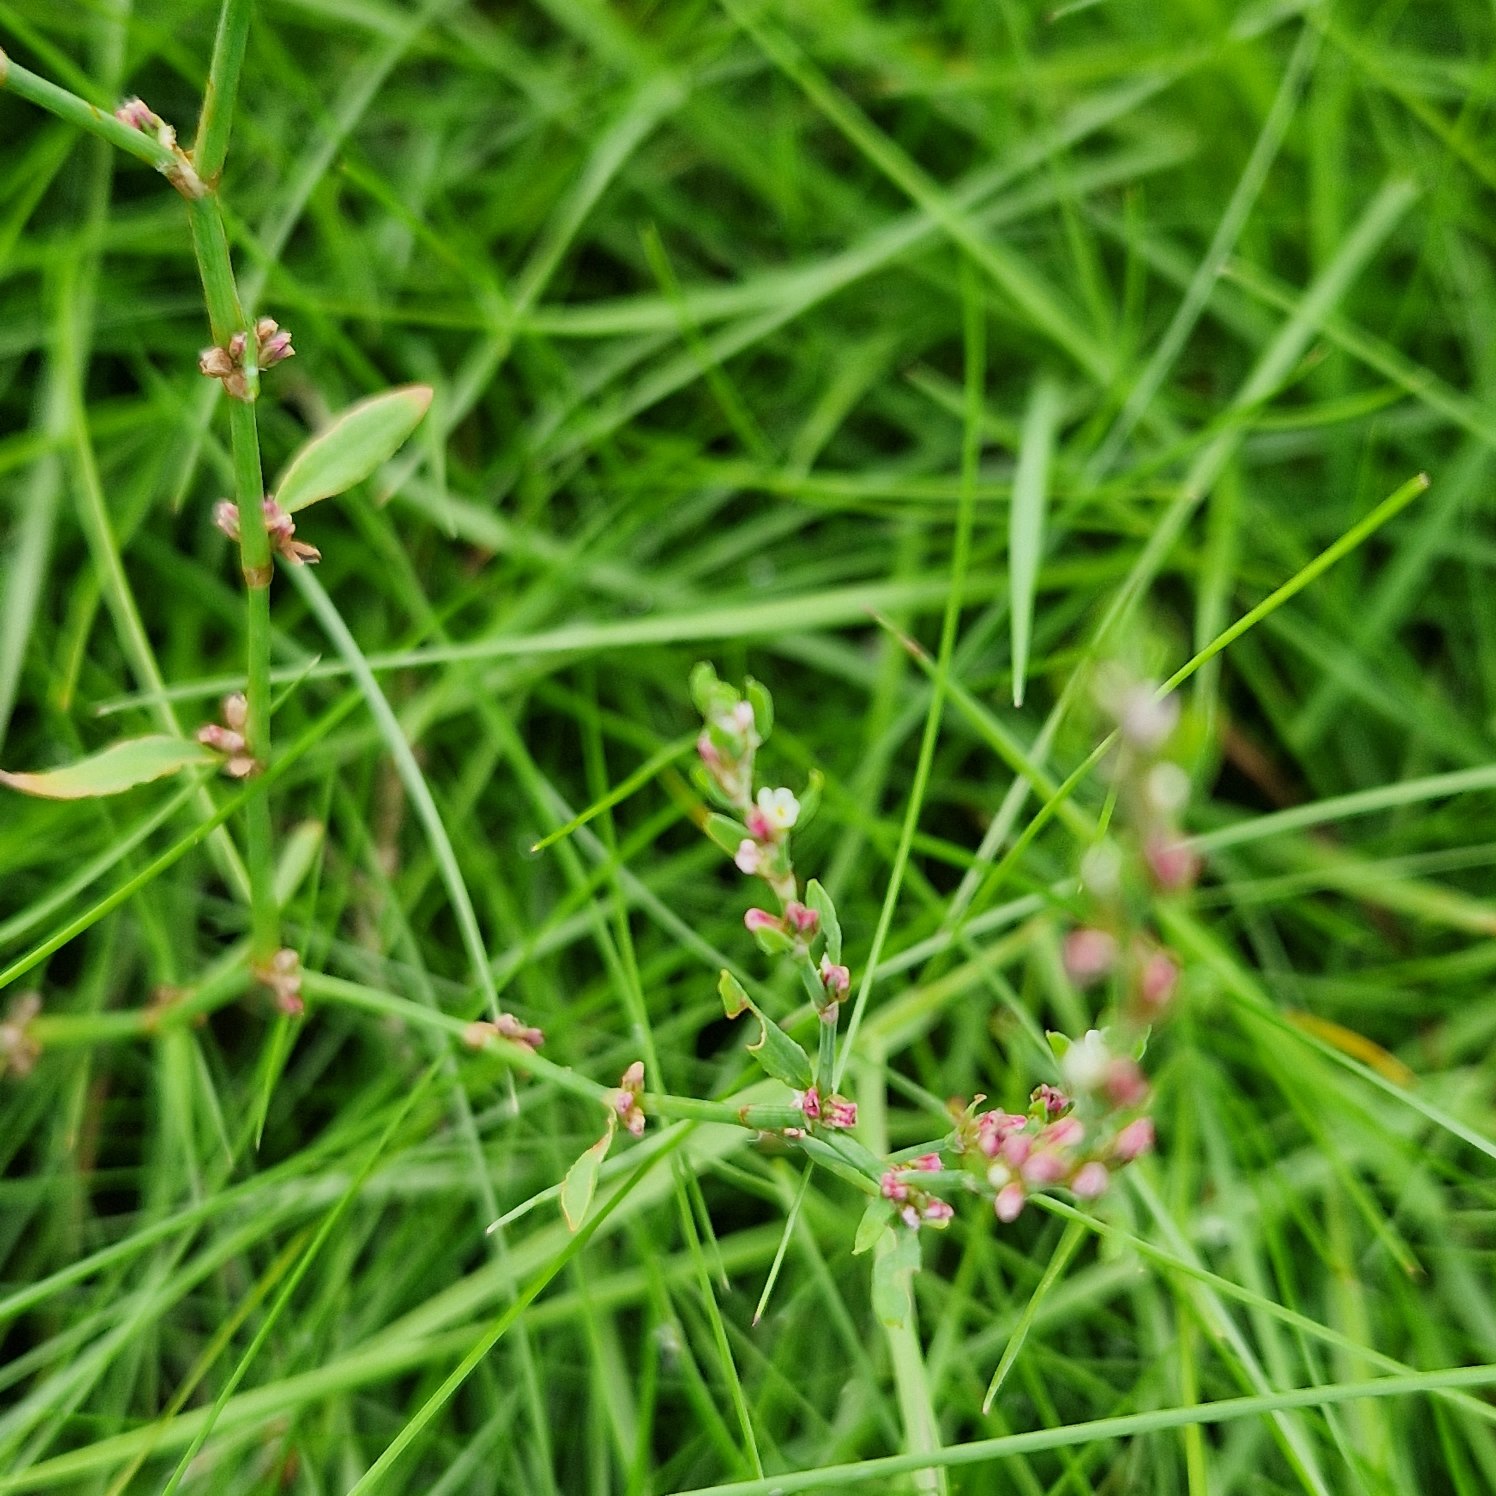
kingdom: Plantae
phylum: Tracheophyta
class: Magnoliopsida
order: Caryophyllales
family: Polygonaceae
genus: Polygonum
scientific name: Polygonum aviculare
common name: Vej-pileurt
